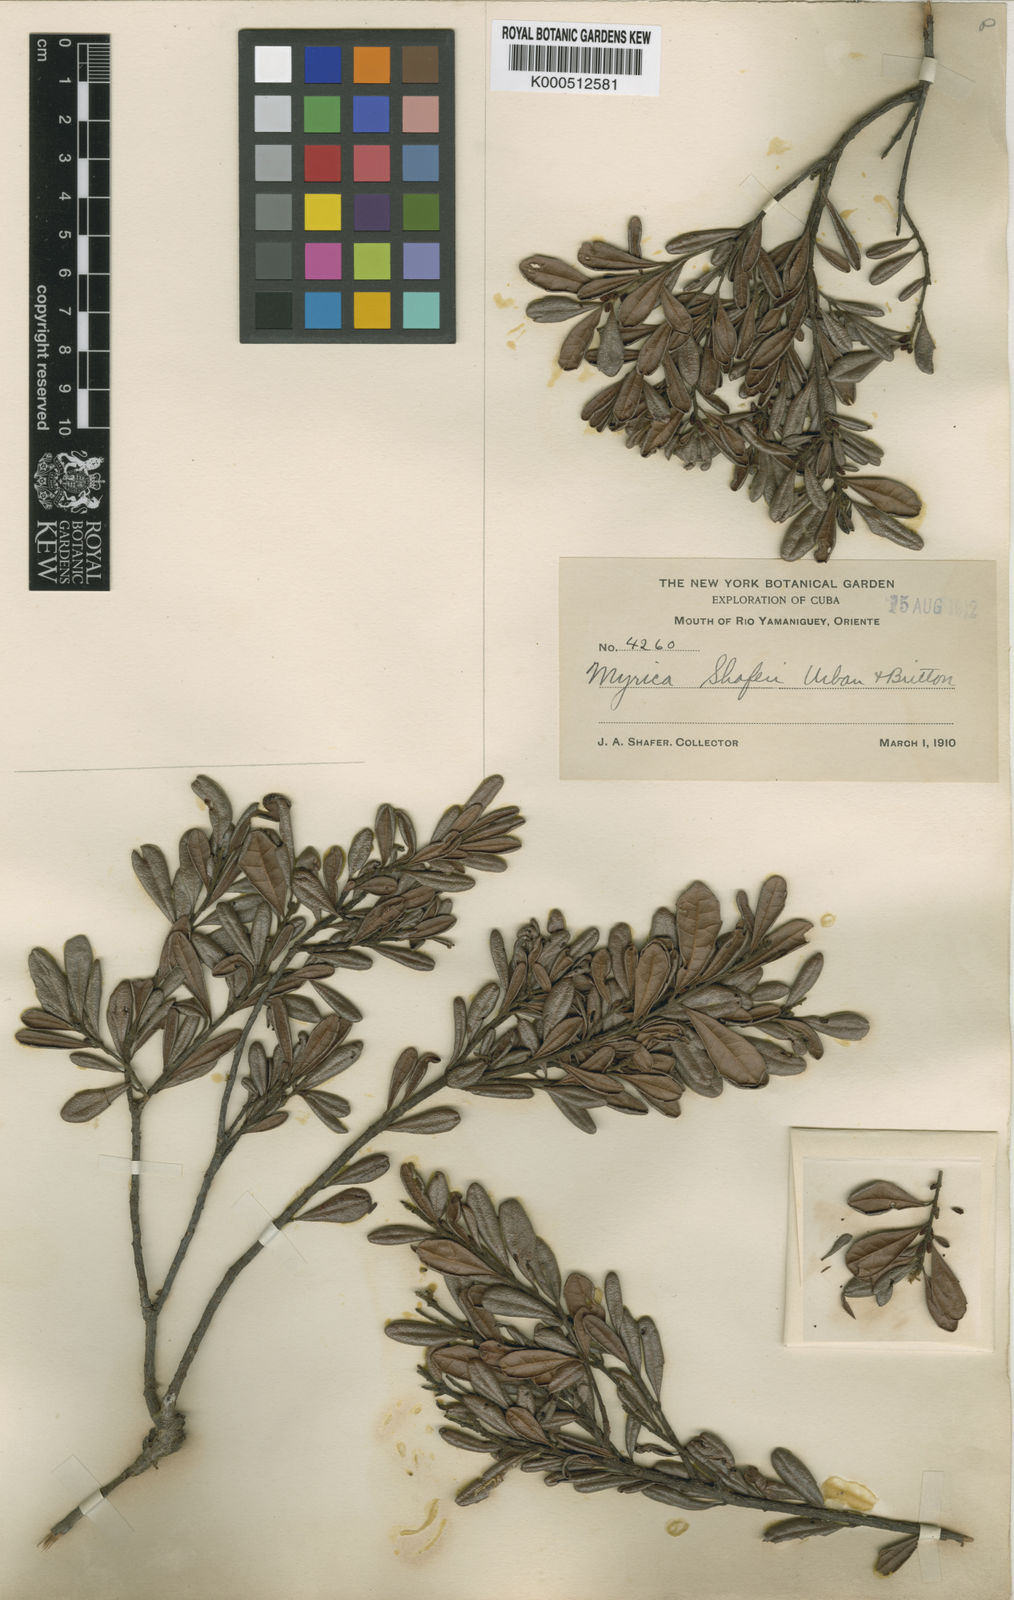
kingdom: Plantae
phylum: Tracheophyta
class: Magnoliopsida
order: Fagales
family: Myricaceae
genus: Morella
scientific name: Morella shaferi
